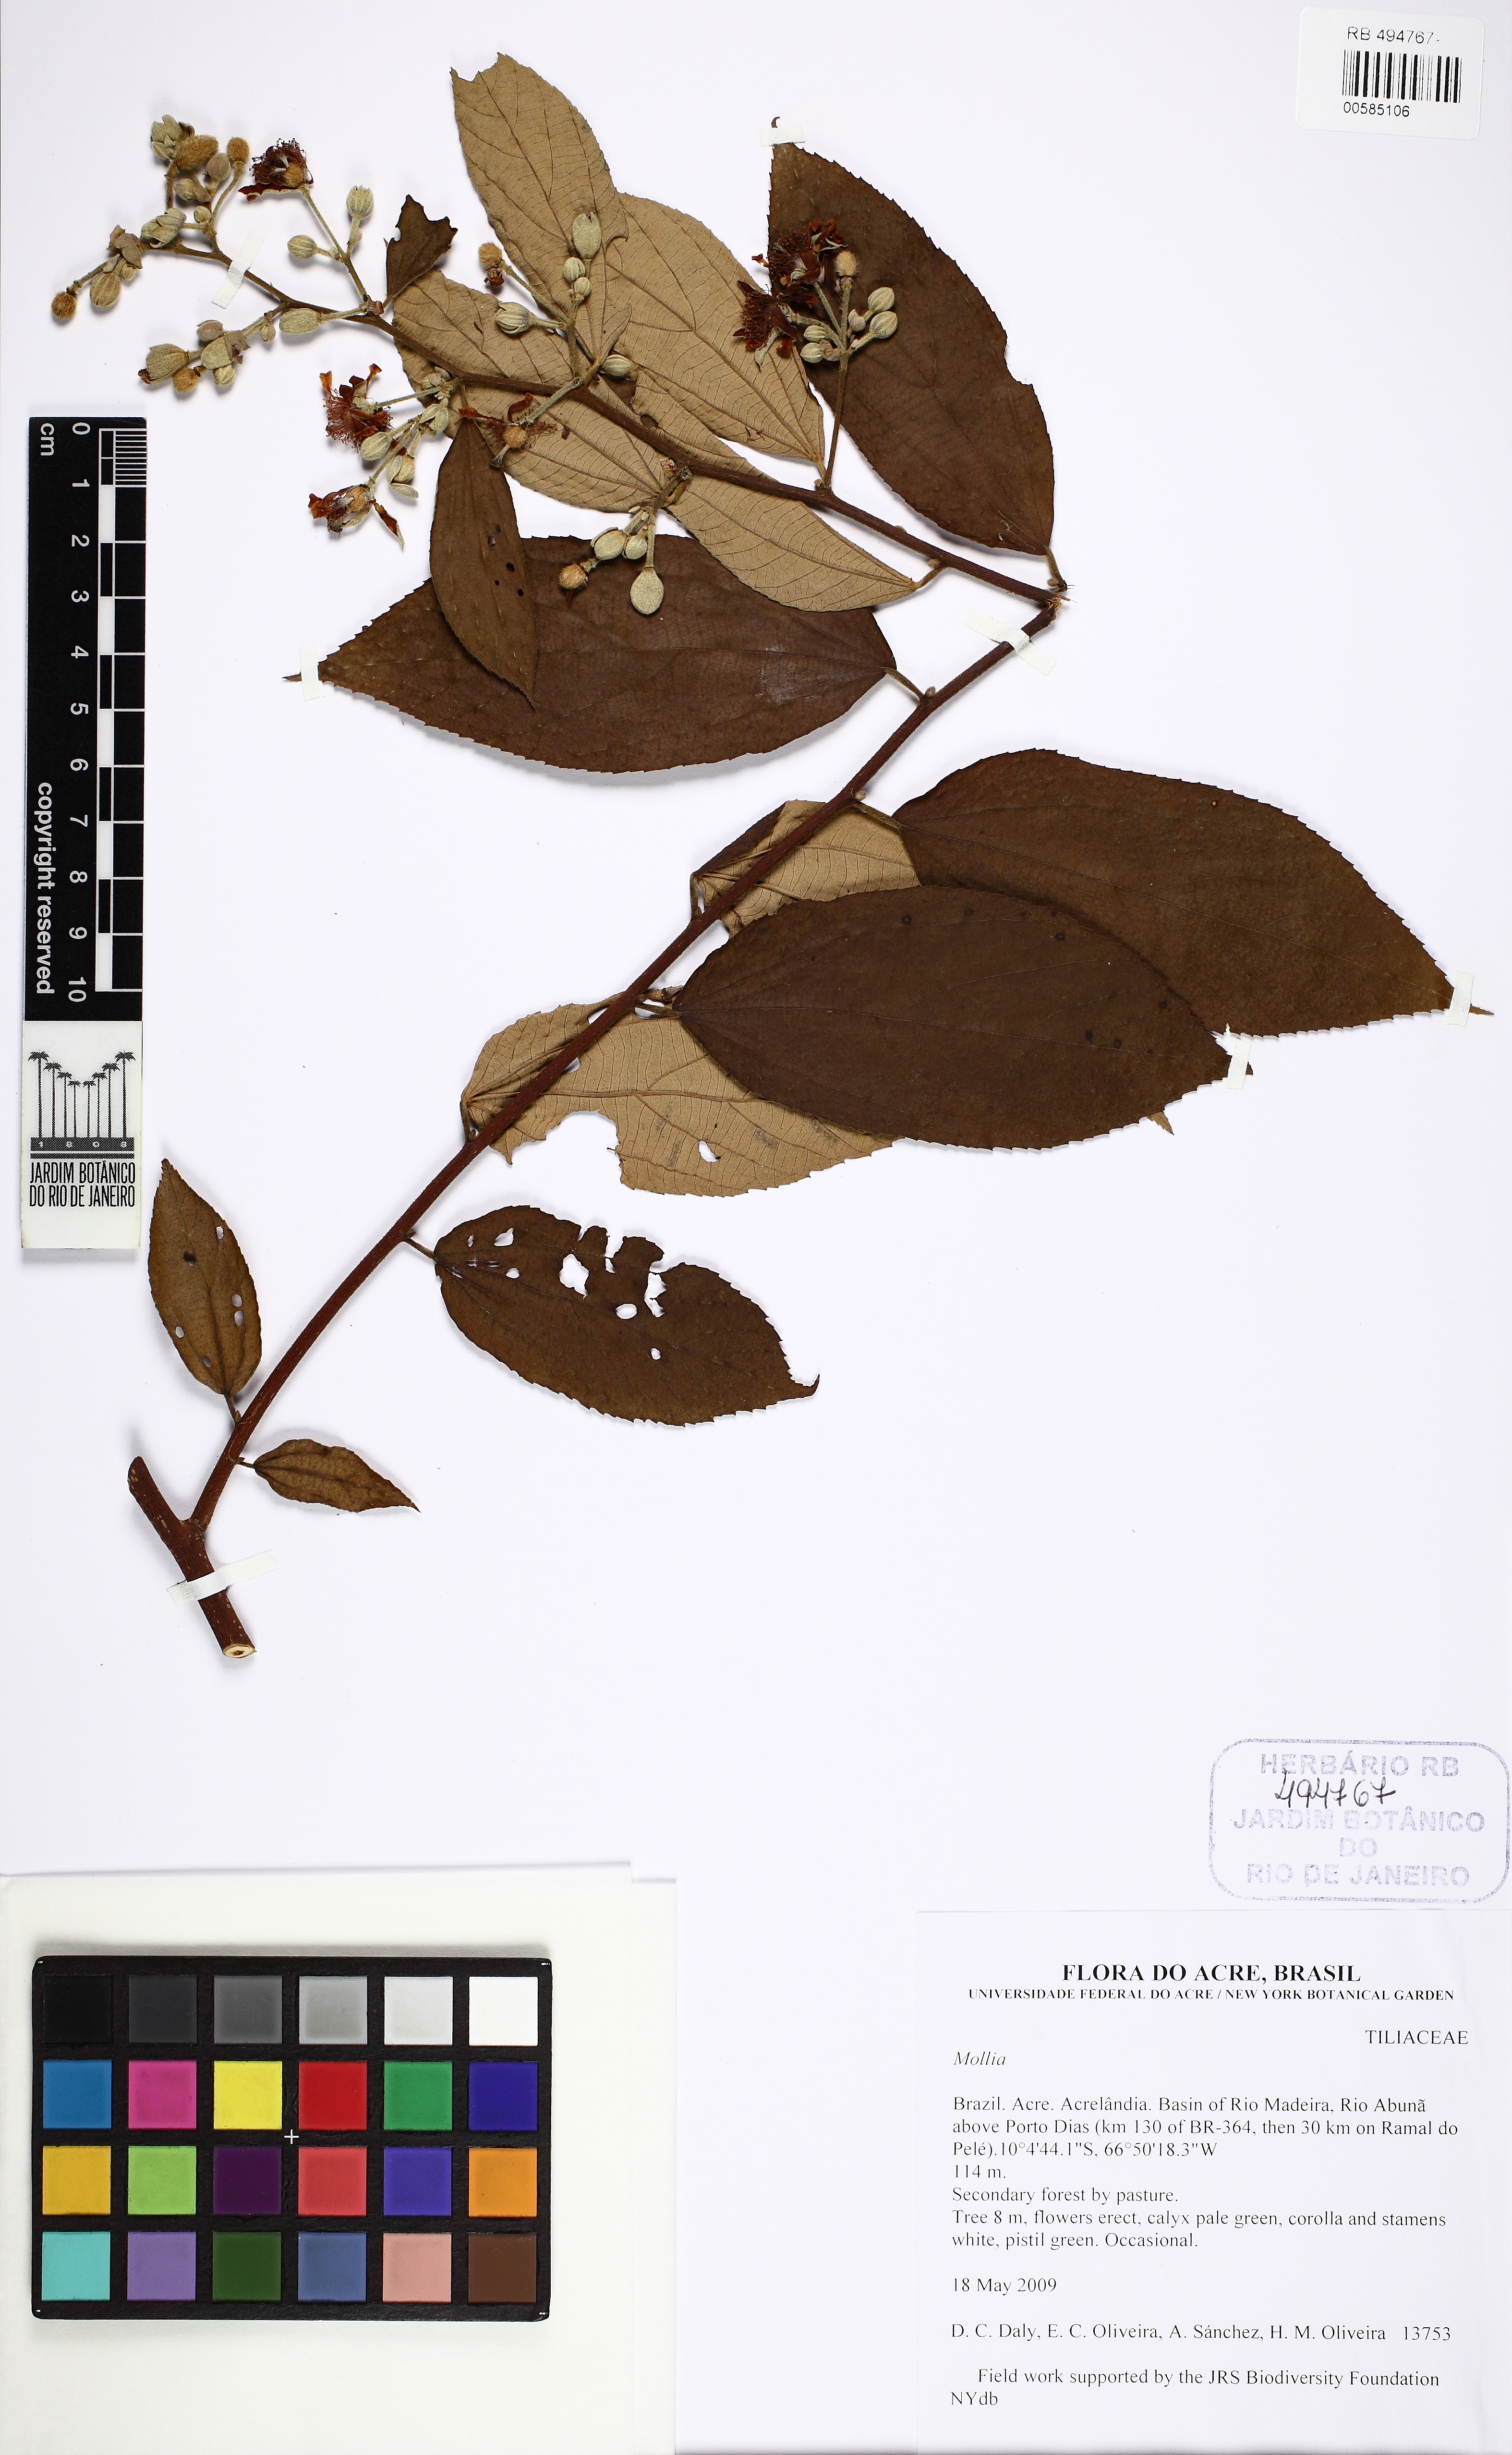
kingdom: Plantae
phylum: Tracheophyta
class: Magnoliopsida
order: Malvales
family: Malvaceae
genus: Luehea
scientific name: Luehea cymulosa
